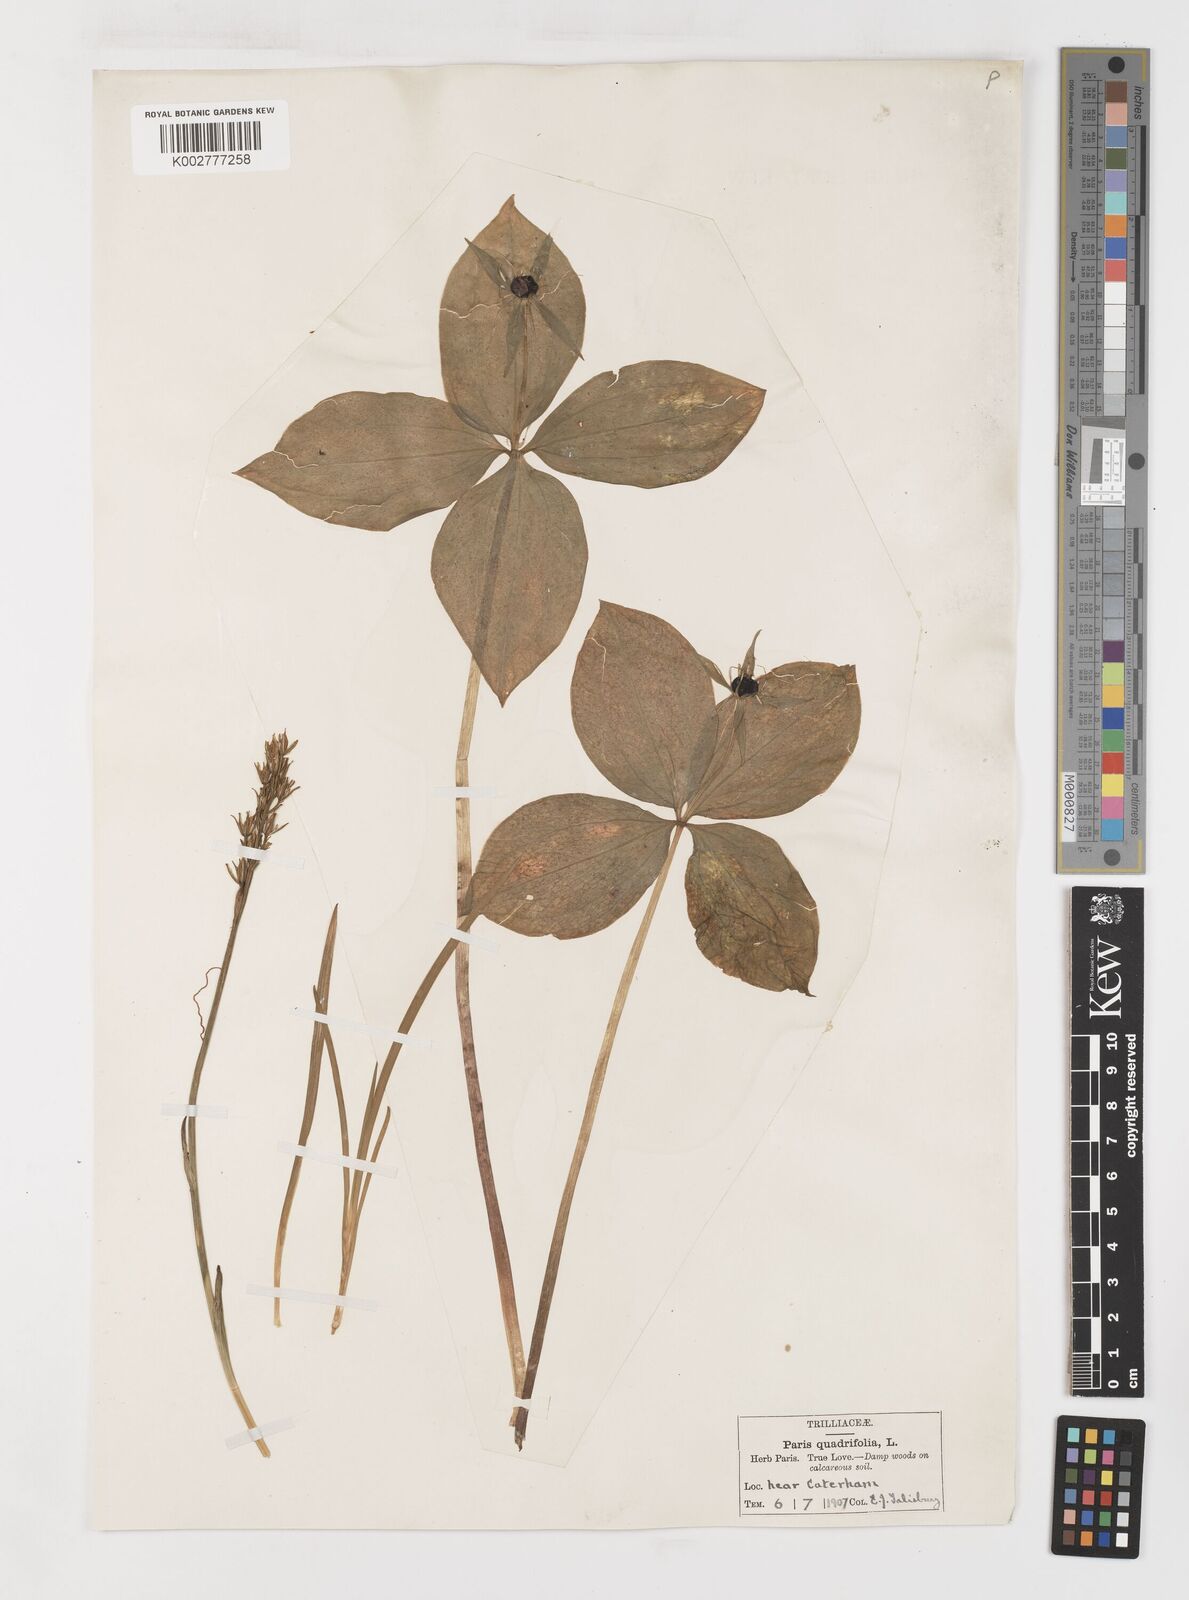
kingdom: Plantae
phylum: Tracheophyta
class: Liliopsida
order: Liliales
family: Melanthiaceae
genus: Paris
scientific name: Paris
